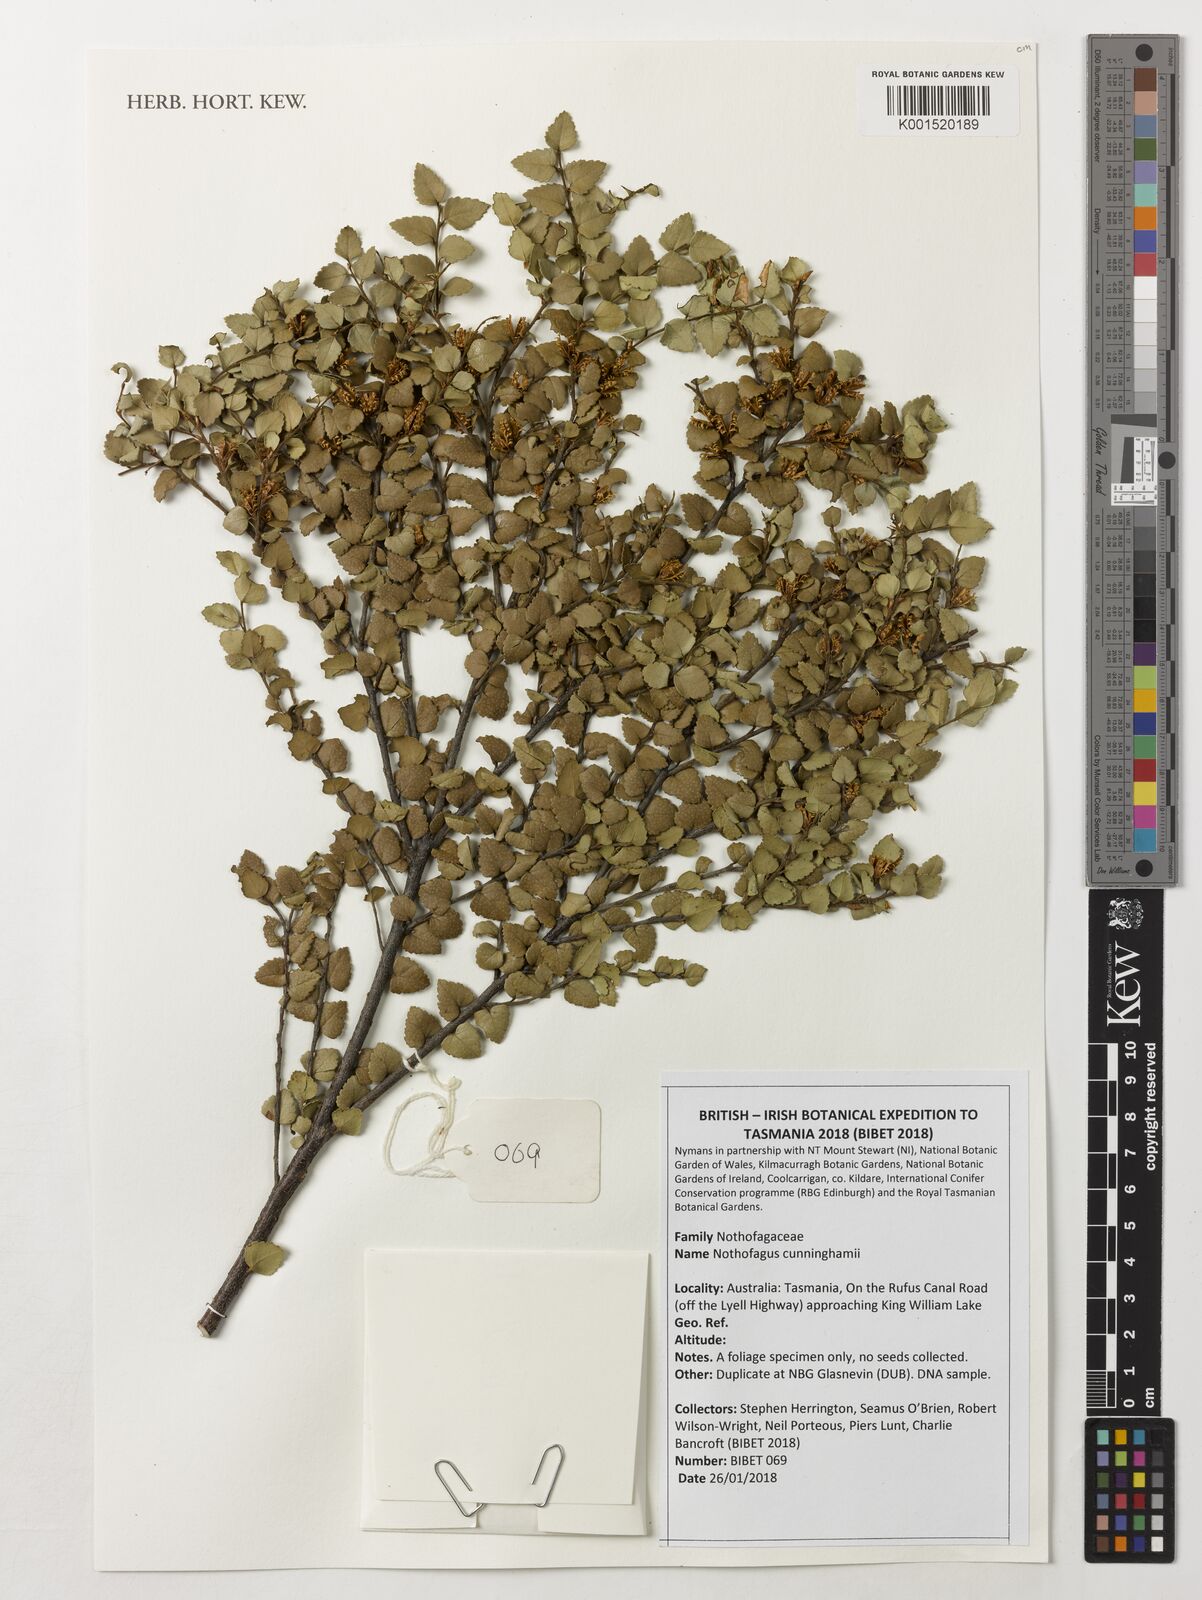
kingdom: Plantae
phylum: Tracheophyta
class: Magnoliopsida
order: Fagales
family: Nothofagaceae
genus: Nothofagus
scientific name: Nothofagus cunninghamii
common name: Myrtle beech
